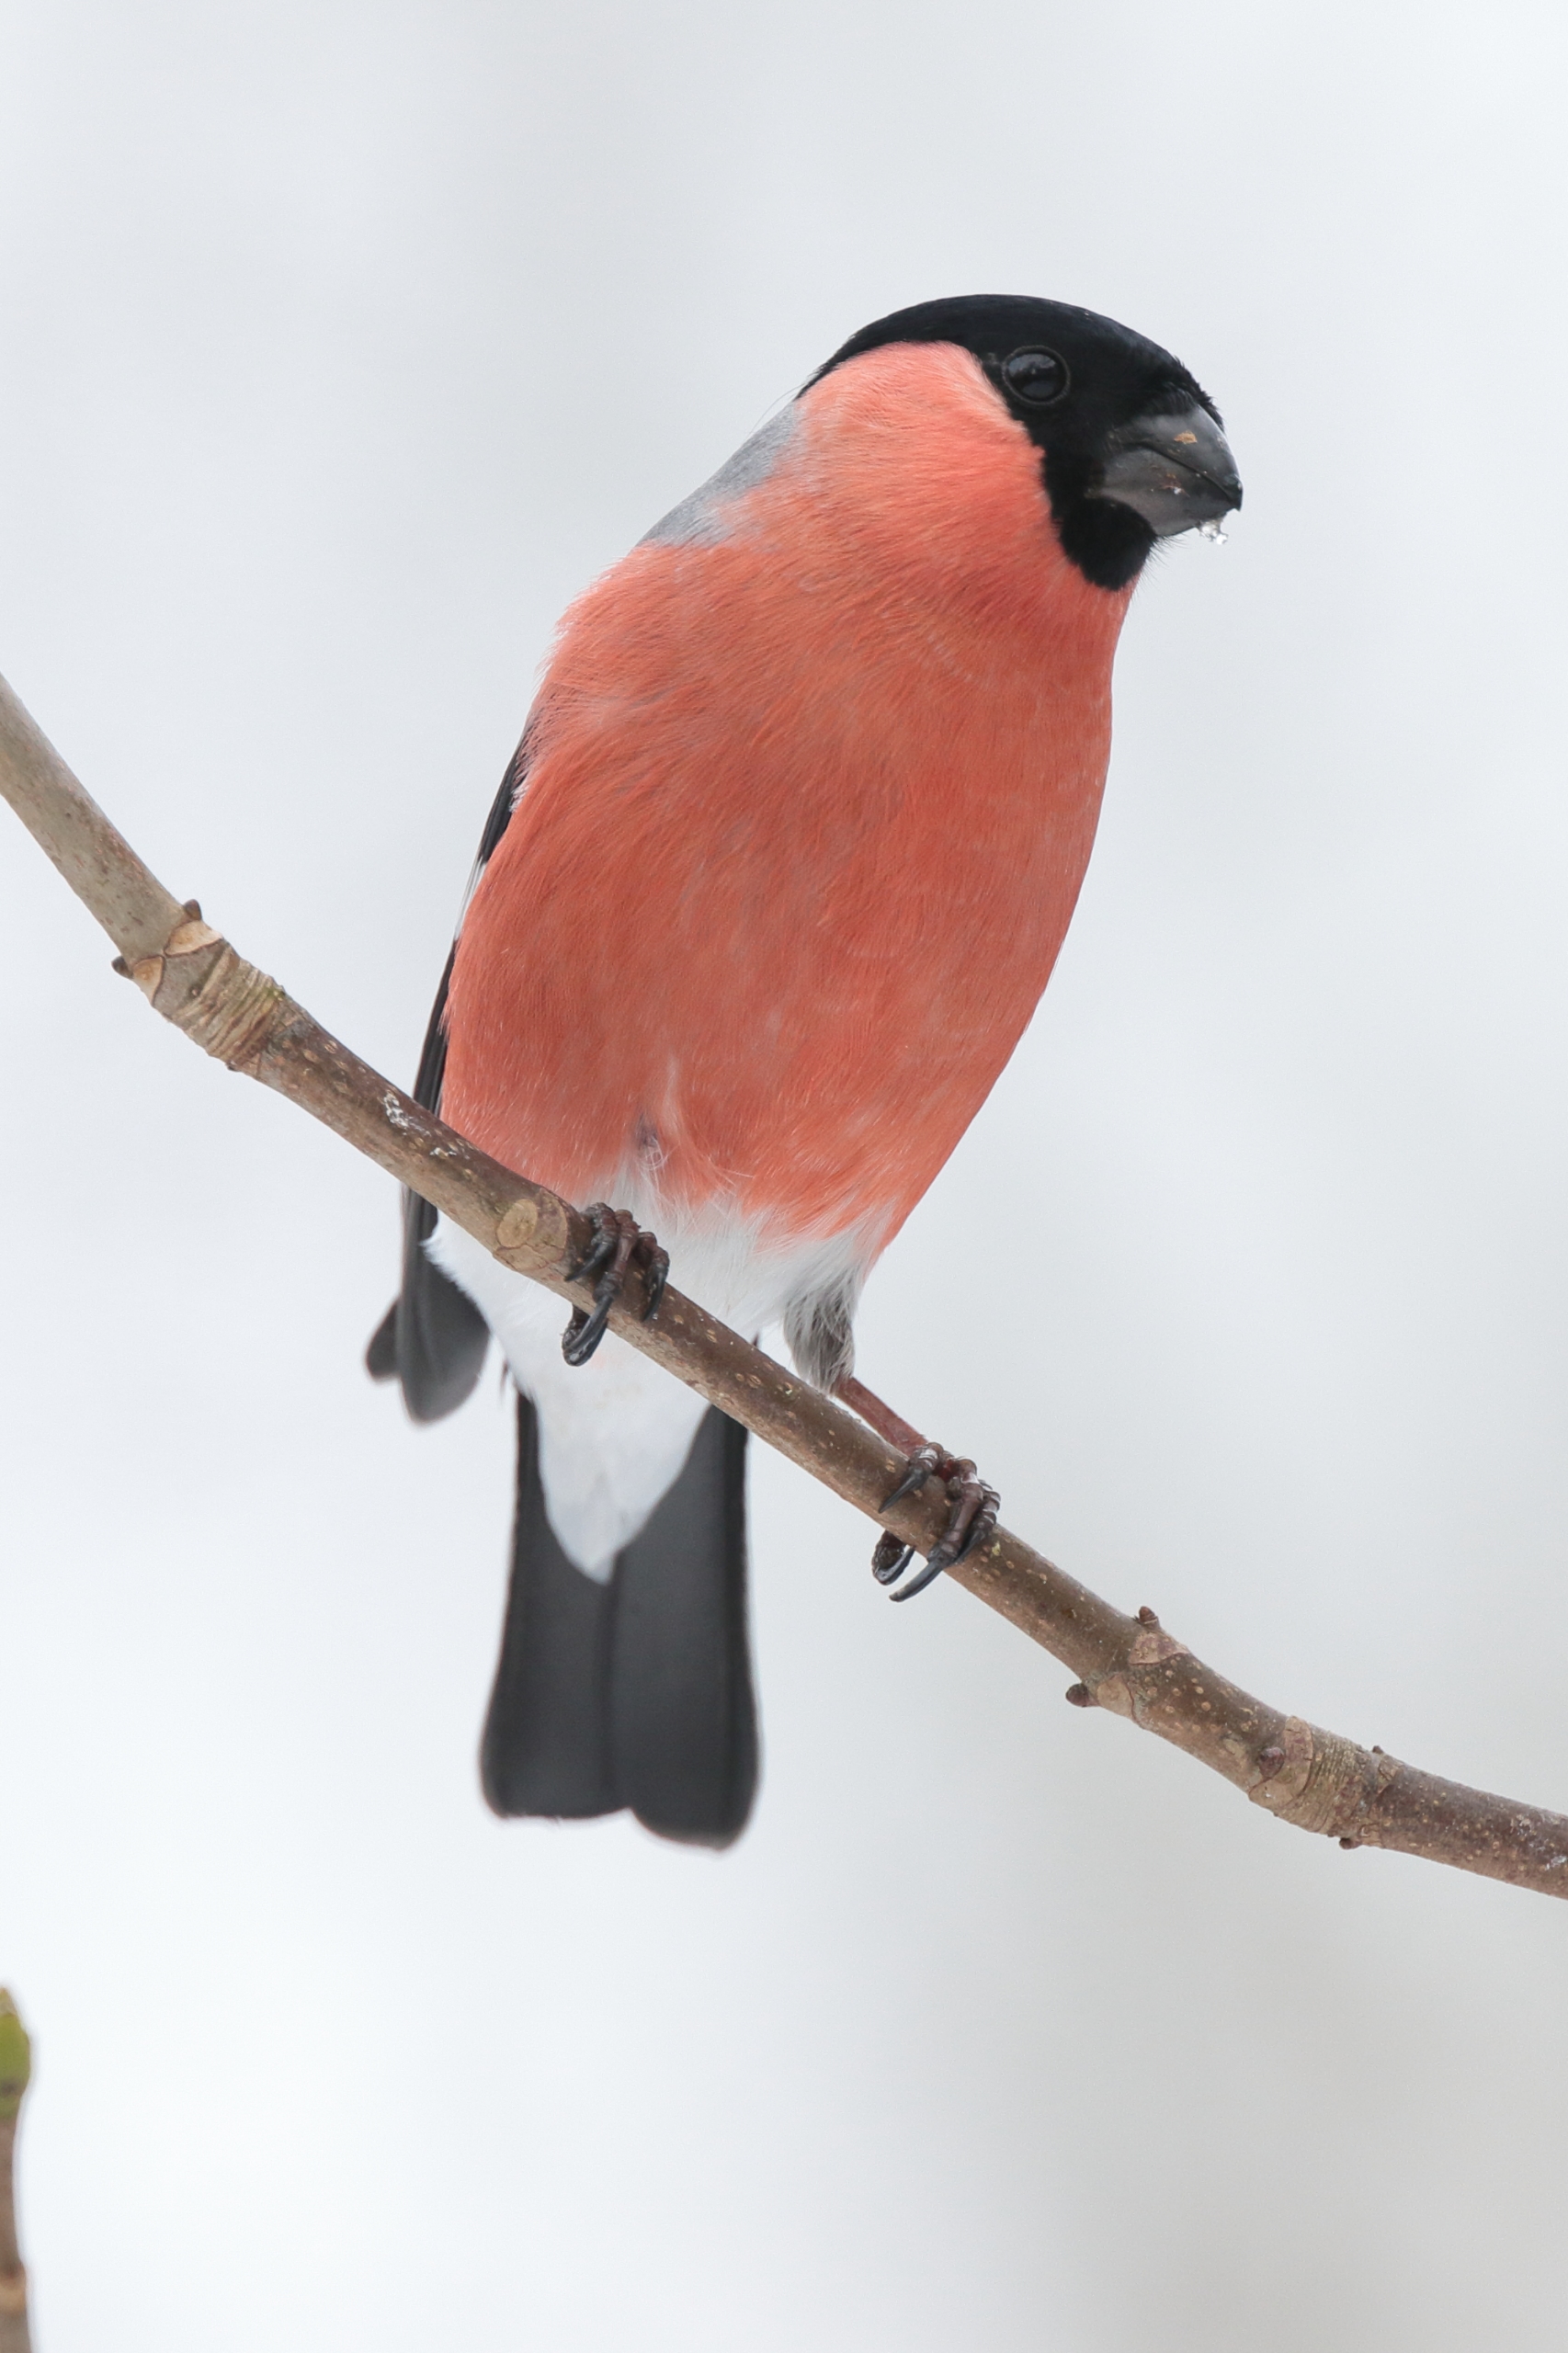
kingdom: Animalia
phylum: Chordata
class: Aves
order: Passeriformes
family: Fringillidae
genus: Pyrrhula
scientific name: Pyrrhula pyrrhula
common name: Dompap
